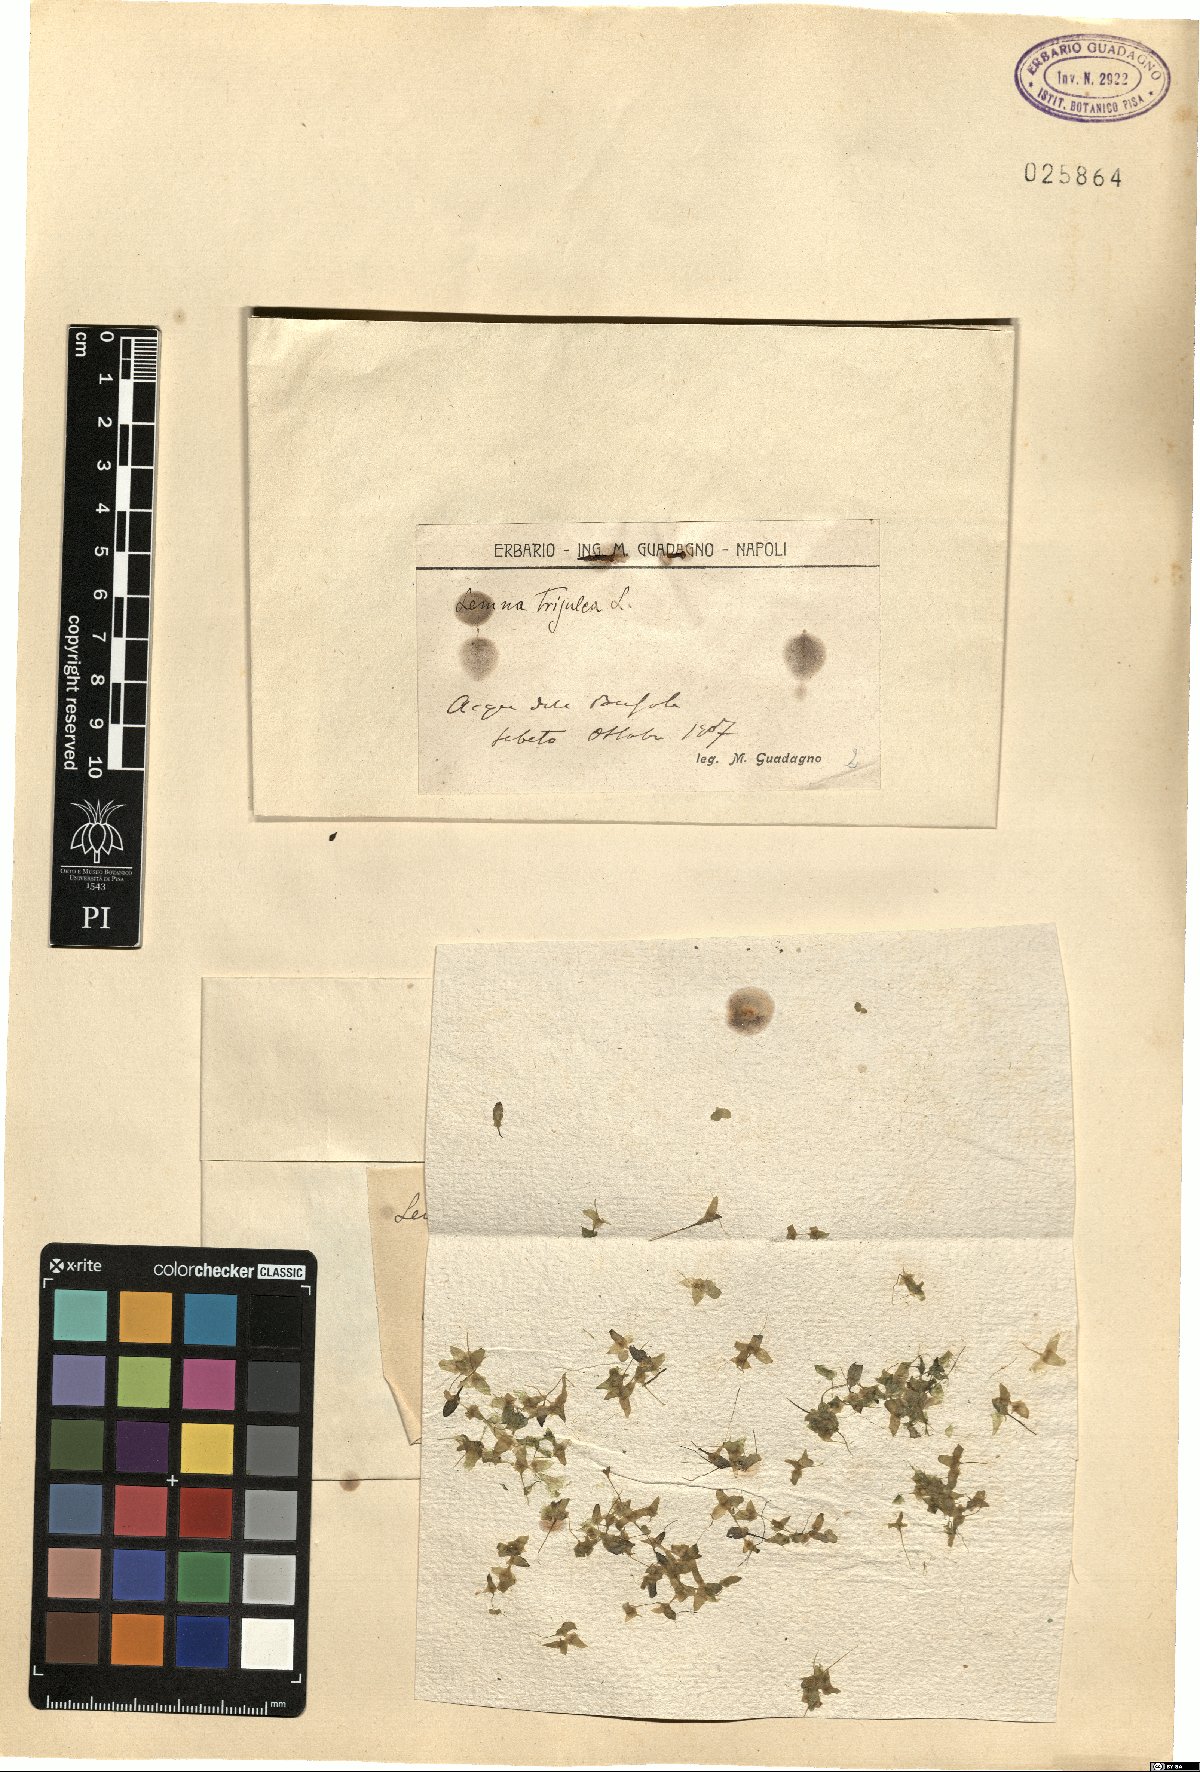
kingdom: Plantae
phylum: Tracheophyta
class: Liliopsida
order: Alismatales
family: Araceae
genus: Lemna
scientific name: Lemna trisulca
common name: Ivy-leaved duckweed
